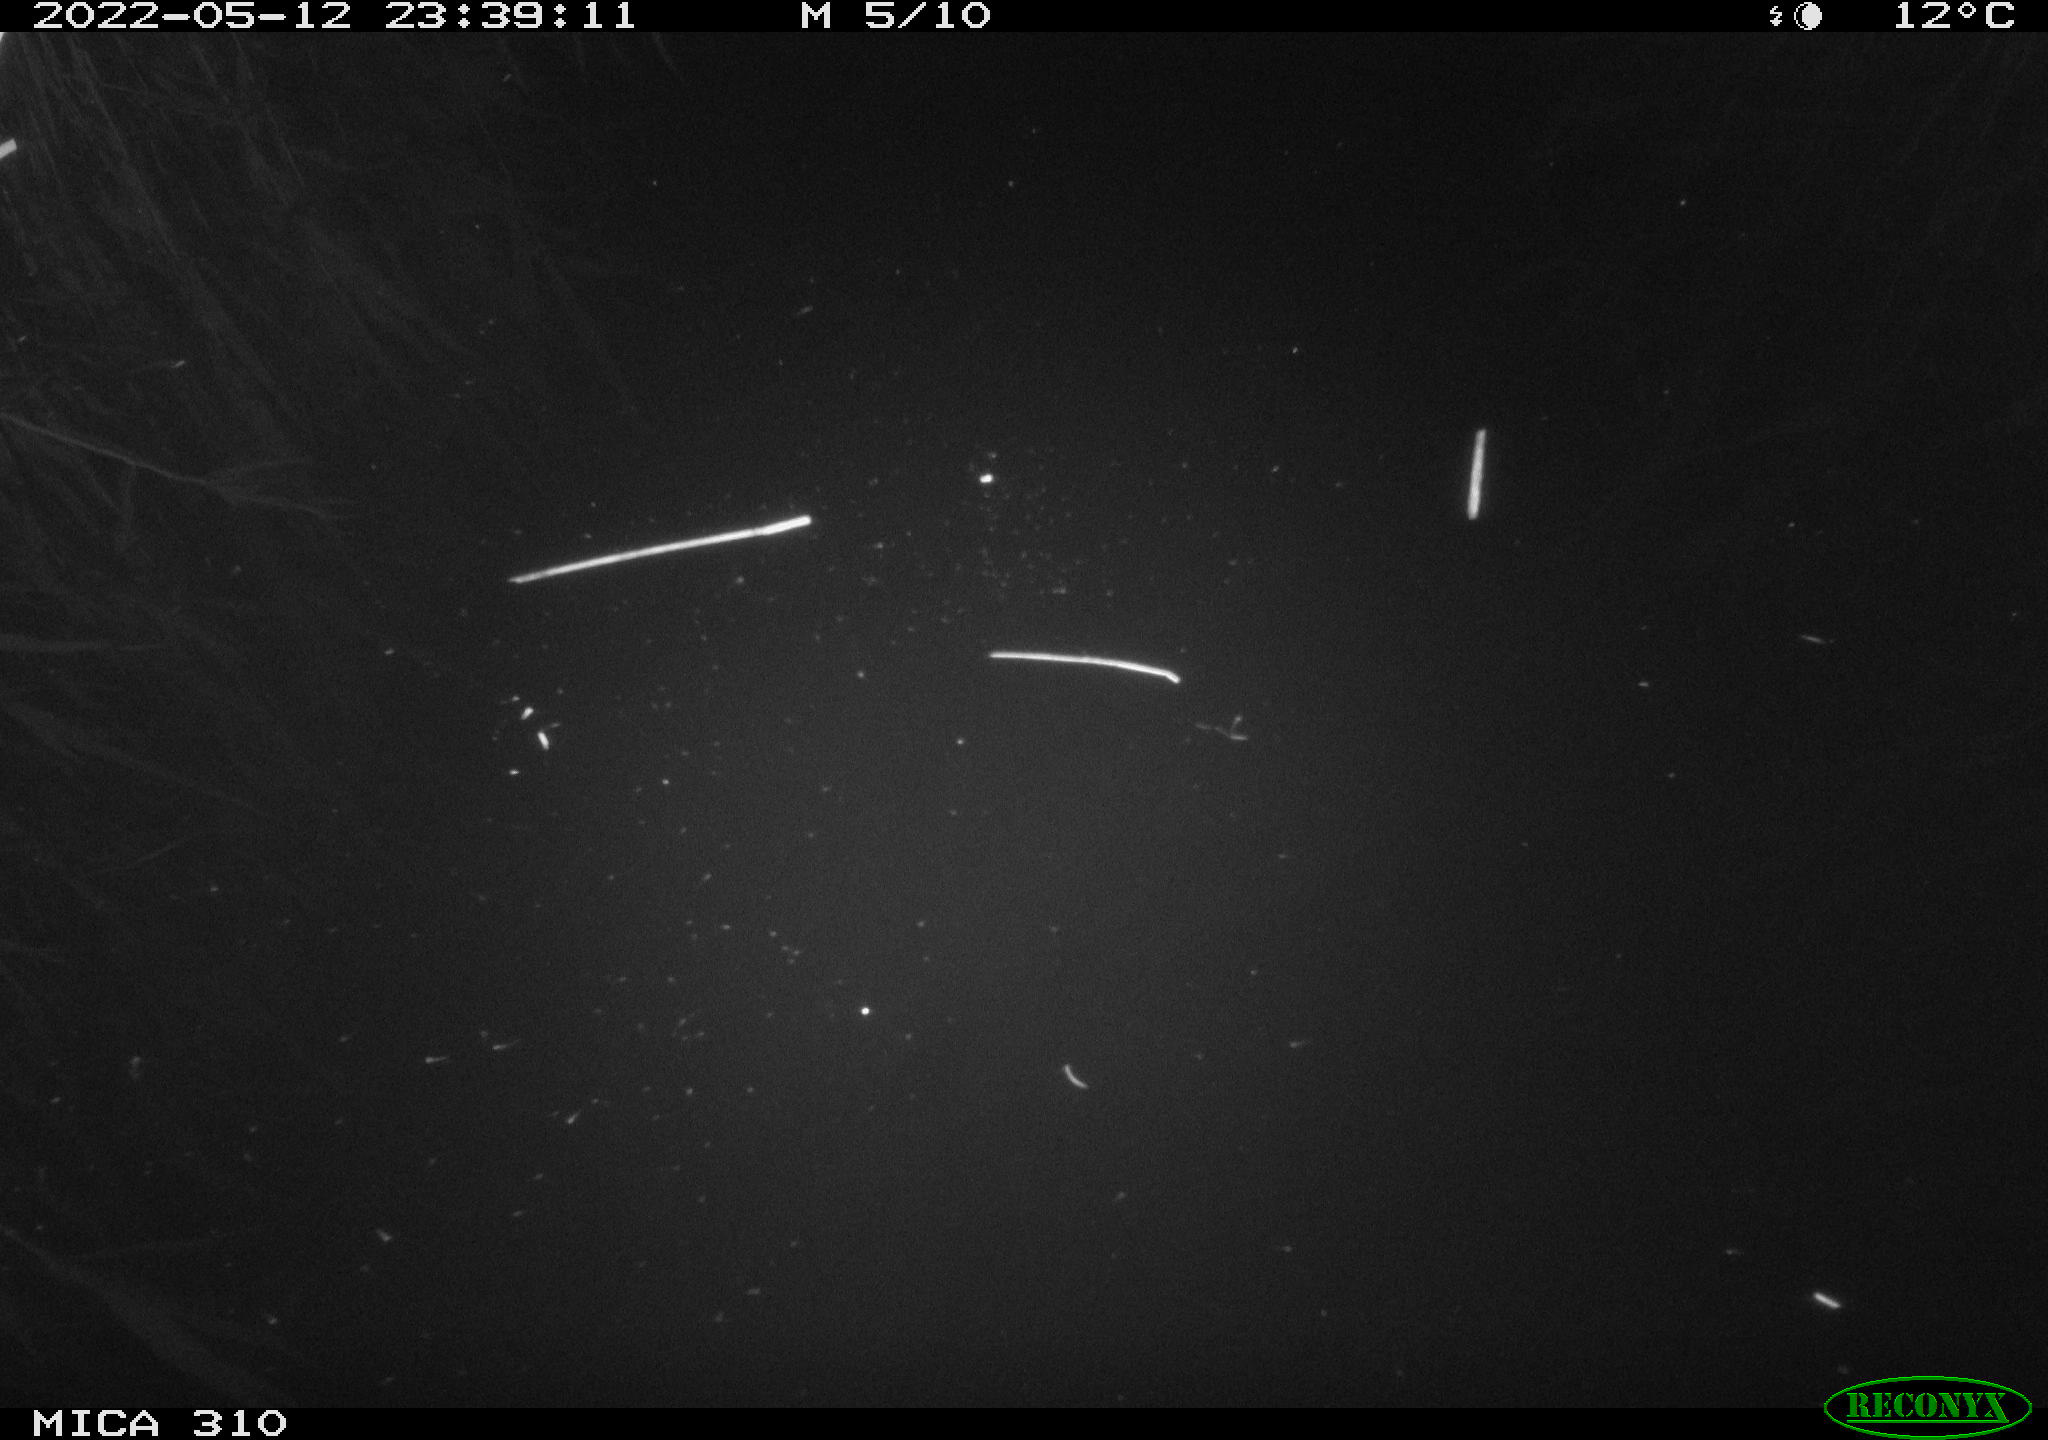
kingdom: Animalia
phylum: Chordata
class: Aves
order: Anseriformes
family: Anatidae
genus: Anas
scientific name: Anas platyrhynchos
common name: Mallard
